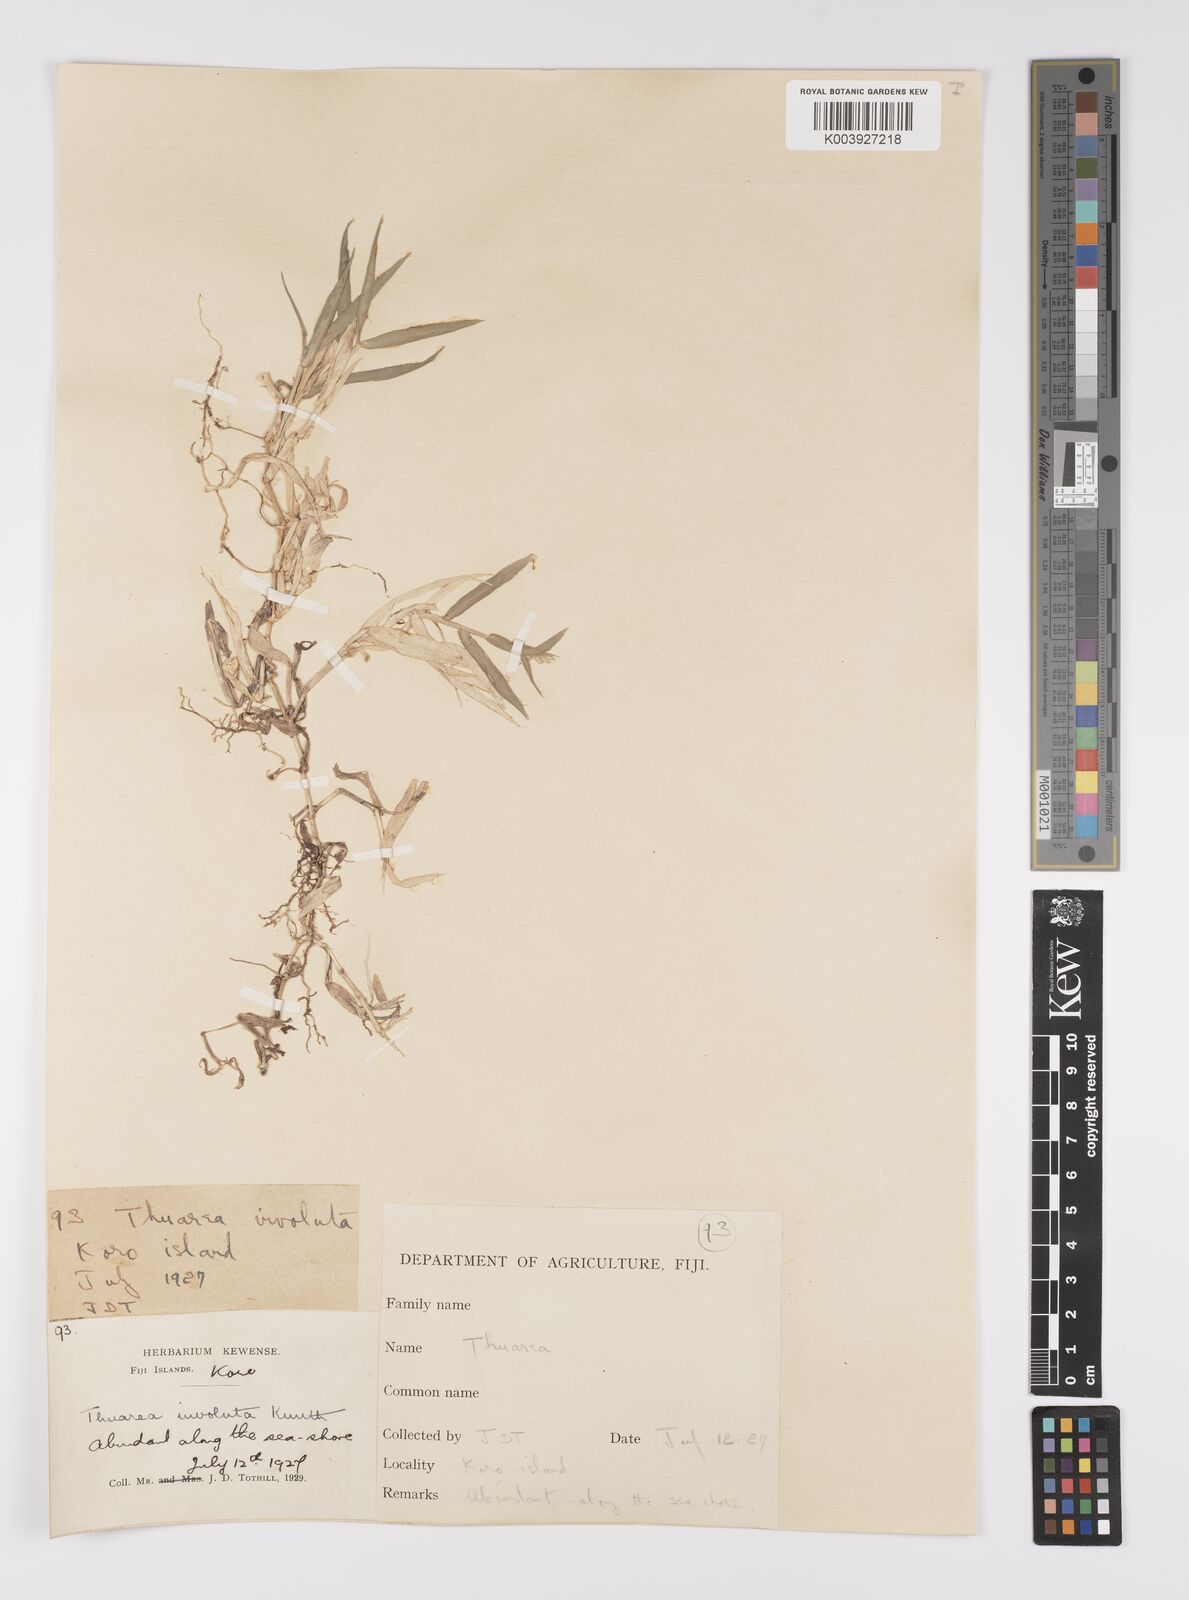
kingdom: Plantae
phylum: Tracheophyta
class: Liliopsida
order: Poales
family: Poaceae
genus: Thuarea
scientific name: Thuarea involuta
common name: Tropical beach grass
